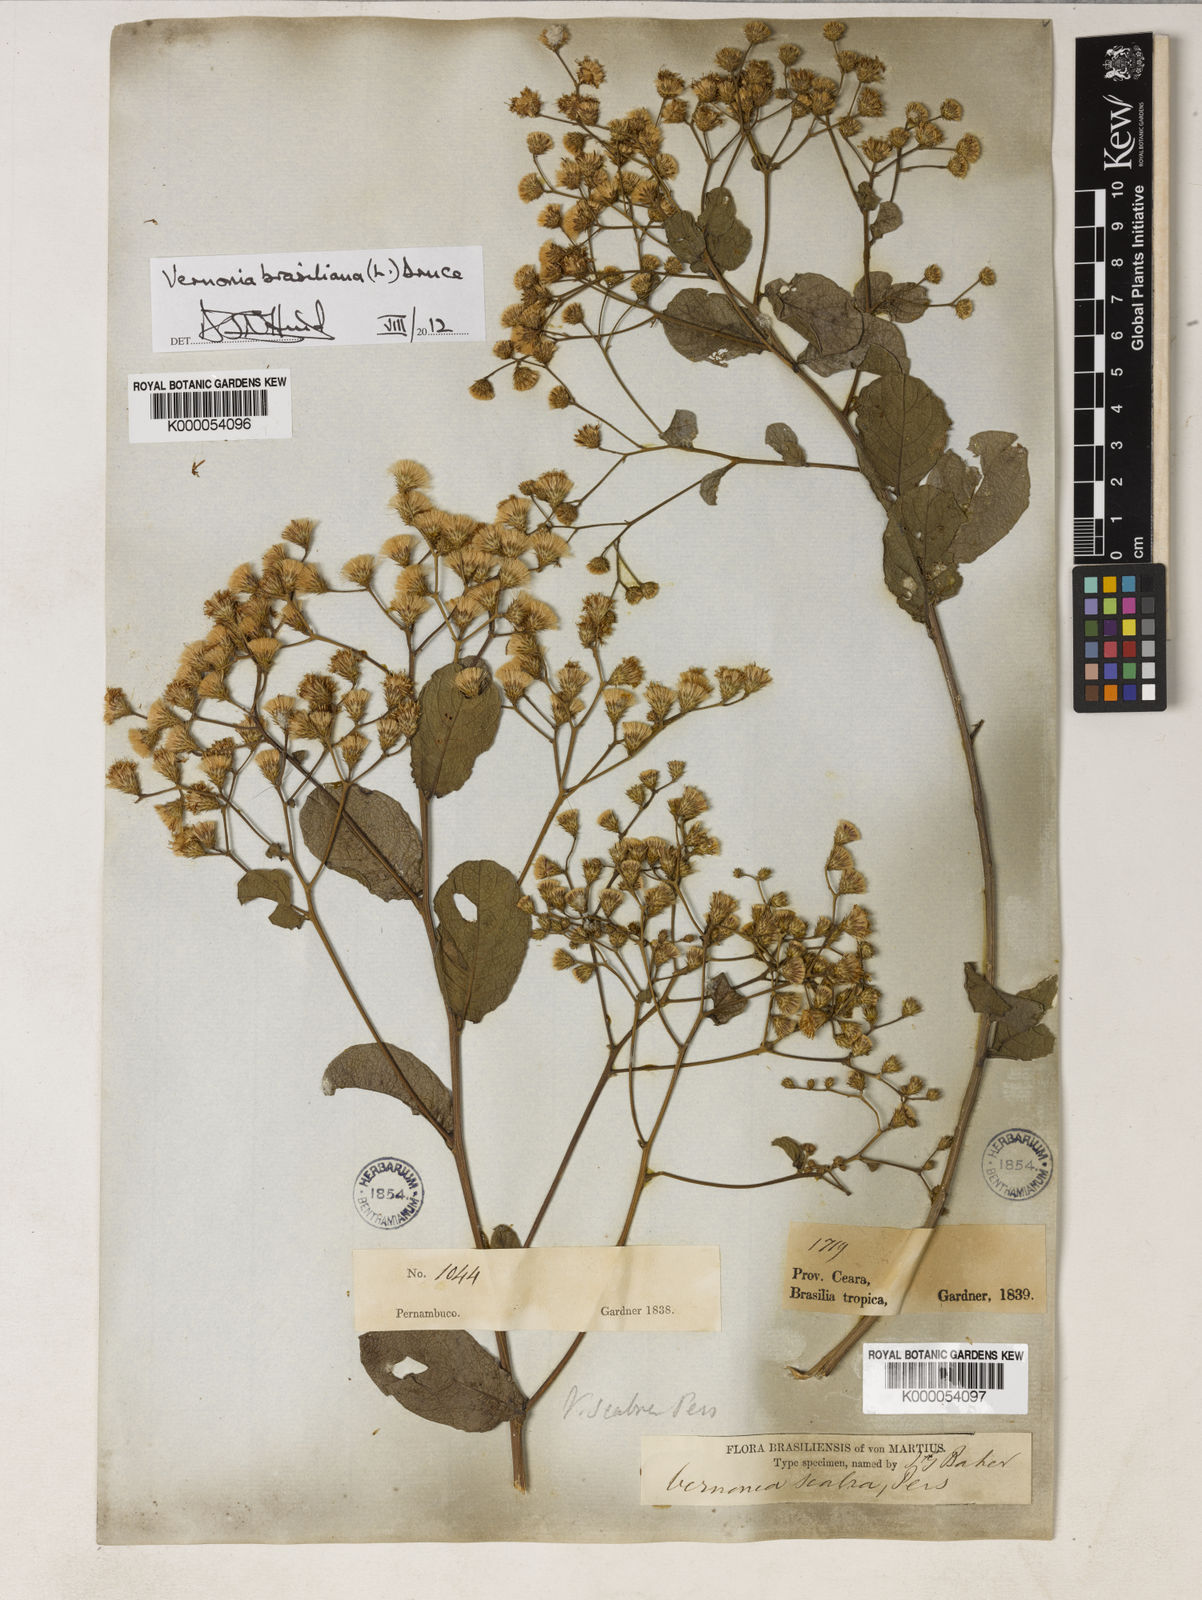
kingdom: Plantae
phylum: Tracheophyta
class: Magnoliopsida
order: Asterales
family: Asteraceae
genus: Vernonanthura
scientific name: Vernonanthura brasiliana
